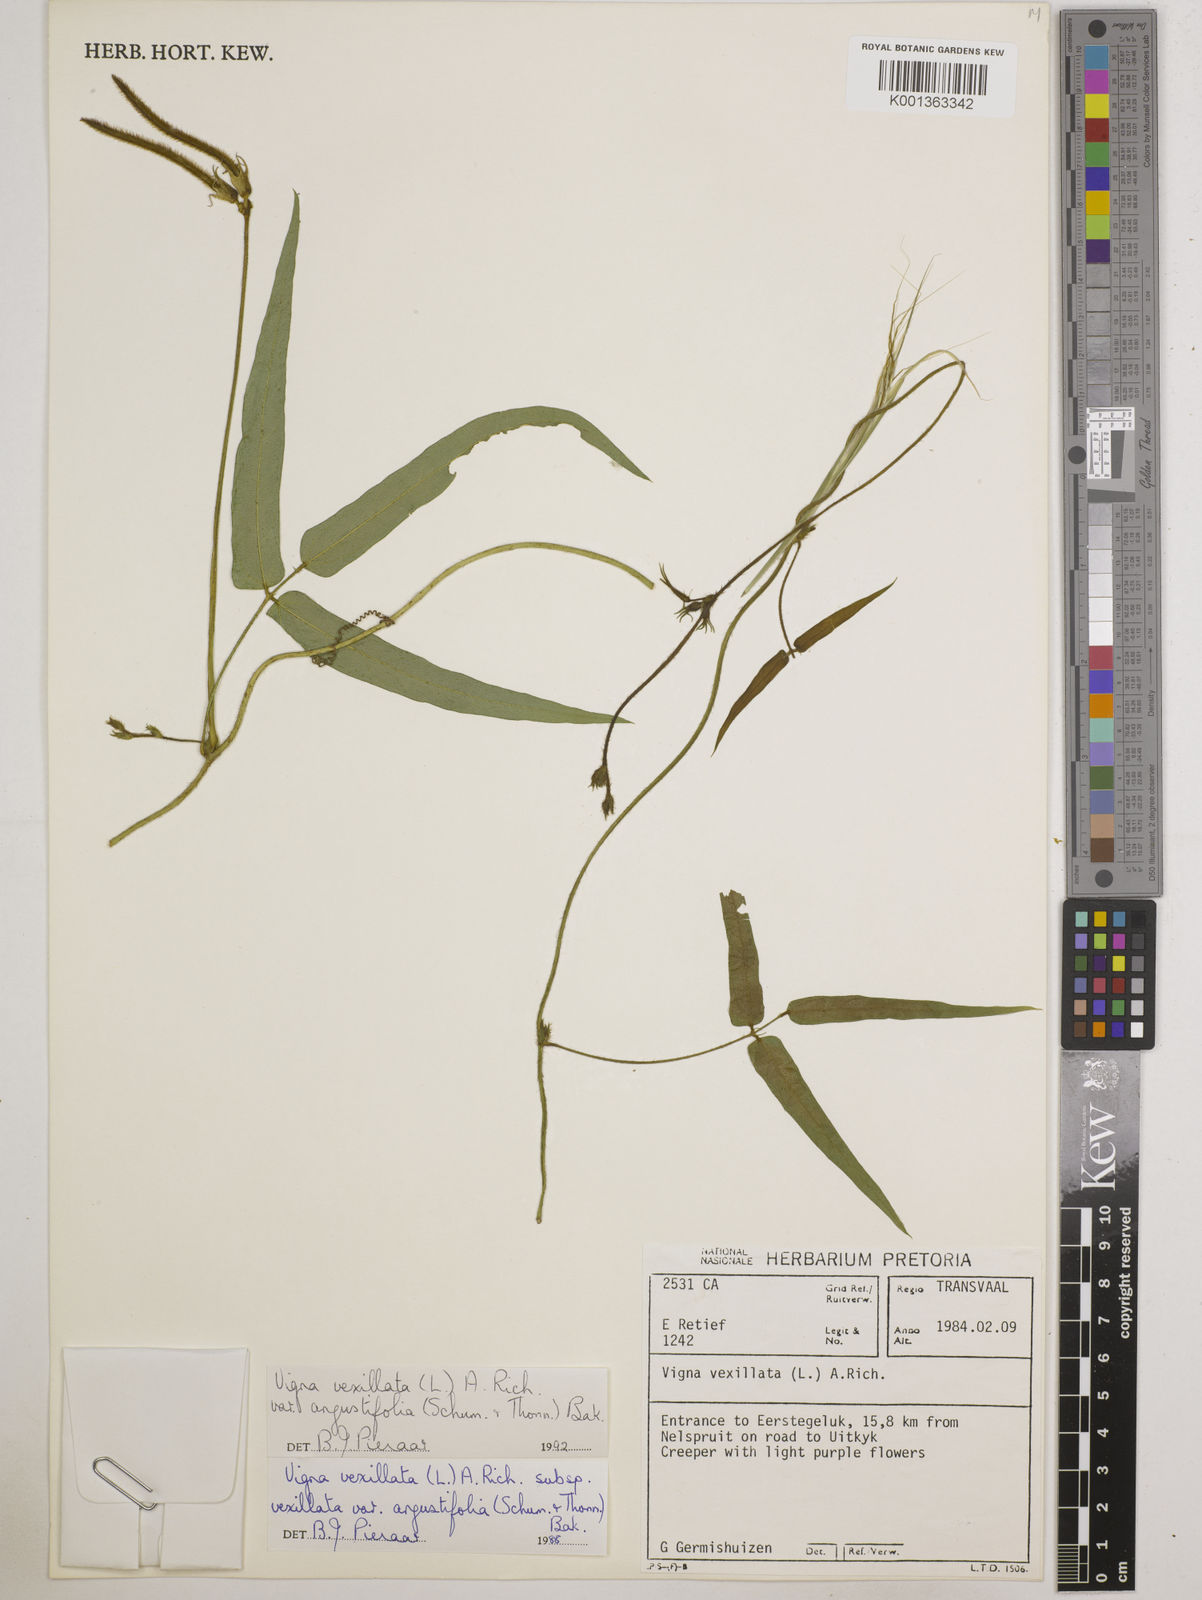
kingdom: Plantae
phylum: Tracheophyta
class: Magnoliopsida
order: Fabales
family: Fabaceae
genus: Vigna
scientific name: Vigna
